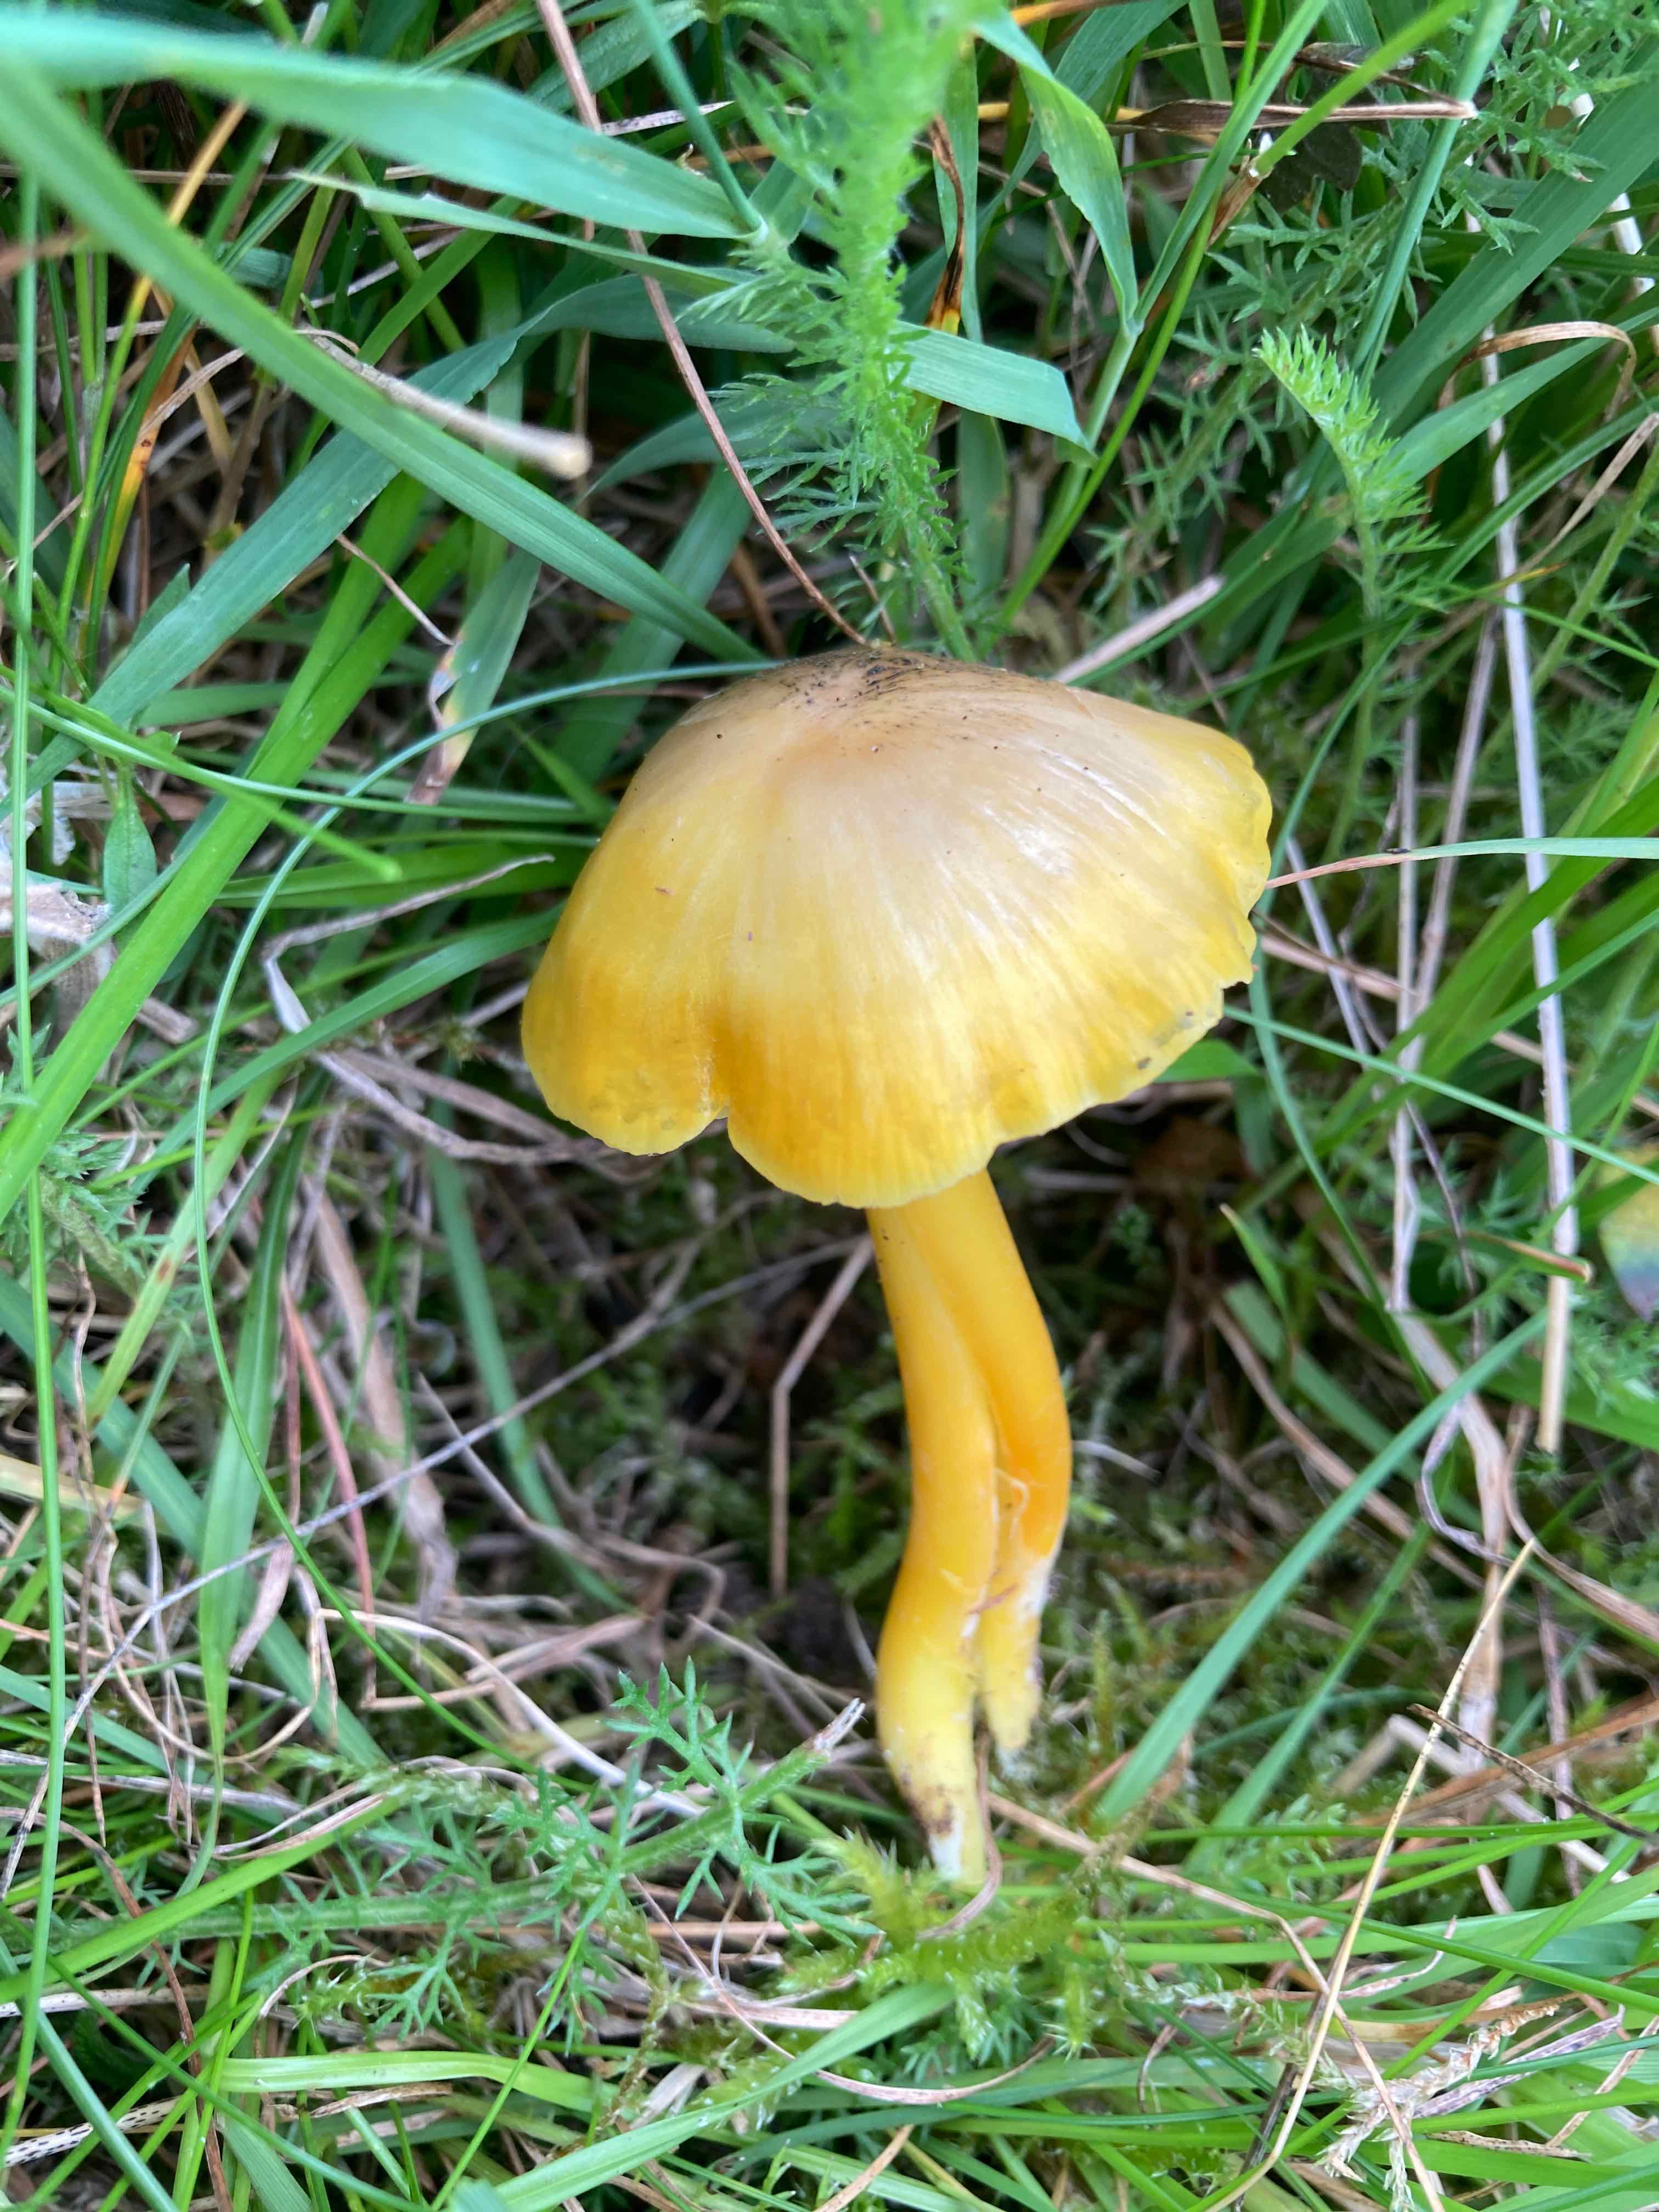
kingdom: Fungi
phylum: Basidiomycota
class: Agaricomycetes
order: Agaricales
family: Hygrophoraceae
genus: Hygrocybe
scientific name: Hygrocybe chlorophana
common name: gul vokshat
